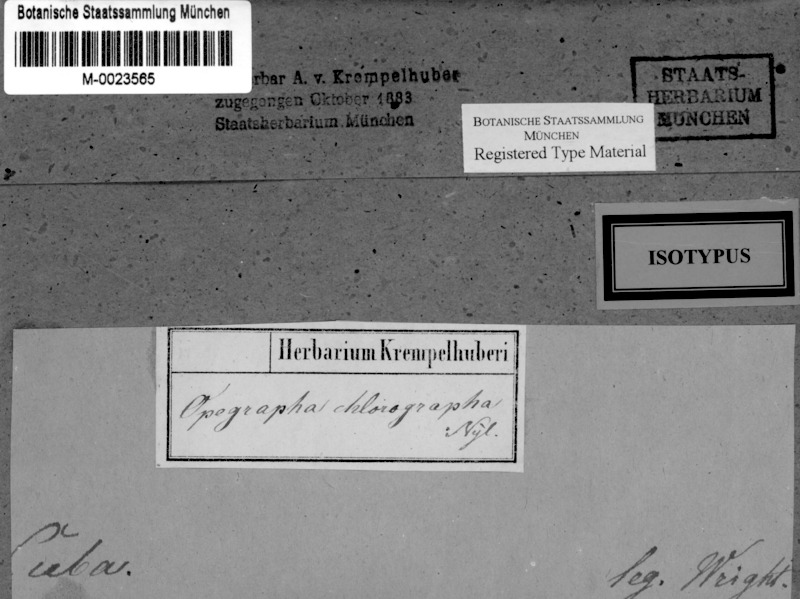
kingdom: Fungi
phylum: Ascomycota
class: Arthoniomycetes
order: Arthoniales
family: Opegraphaceae
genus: Opegrapha
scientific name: Opegrapha
